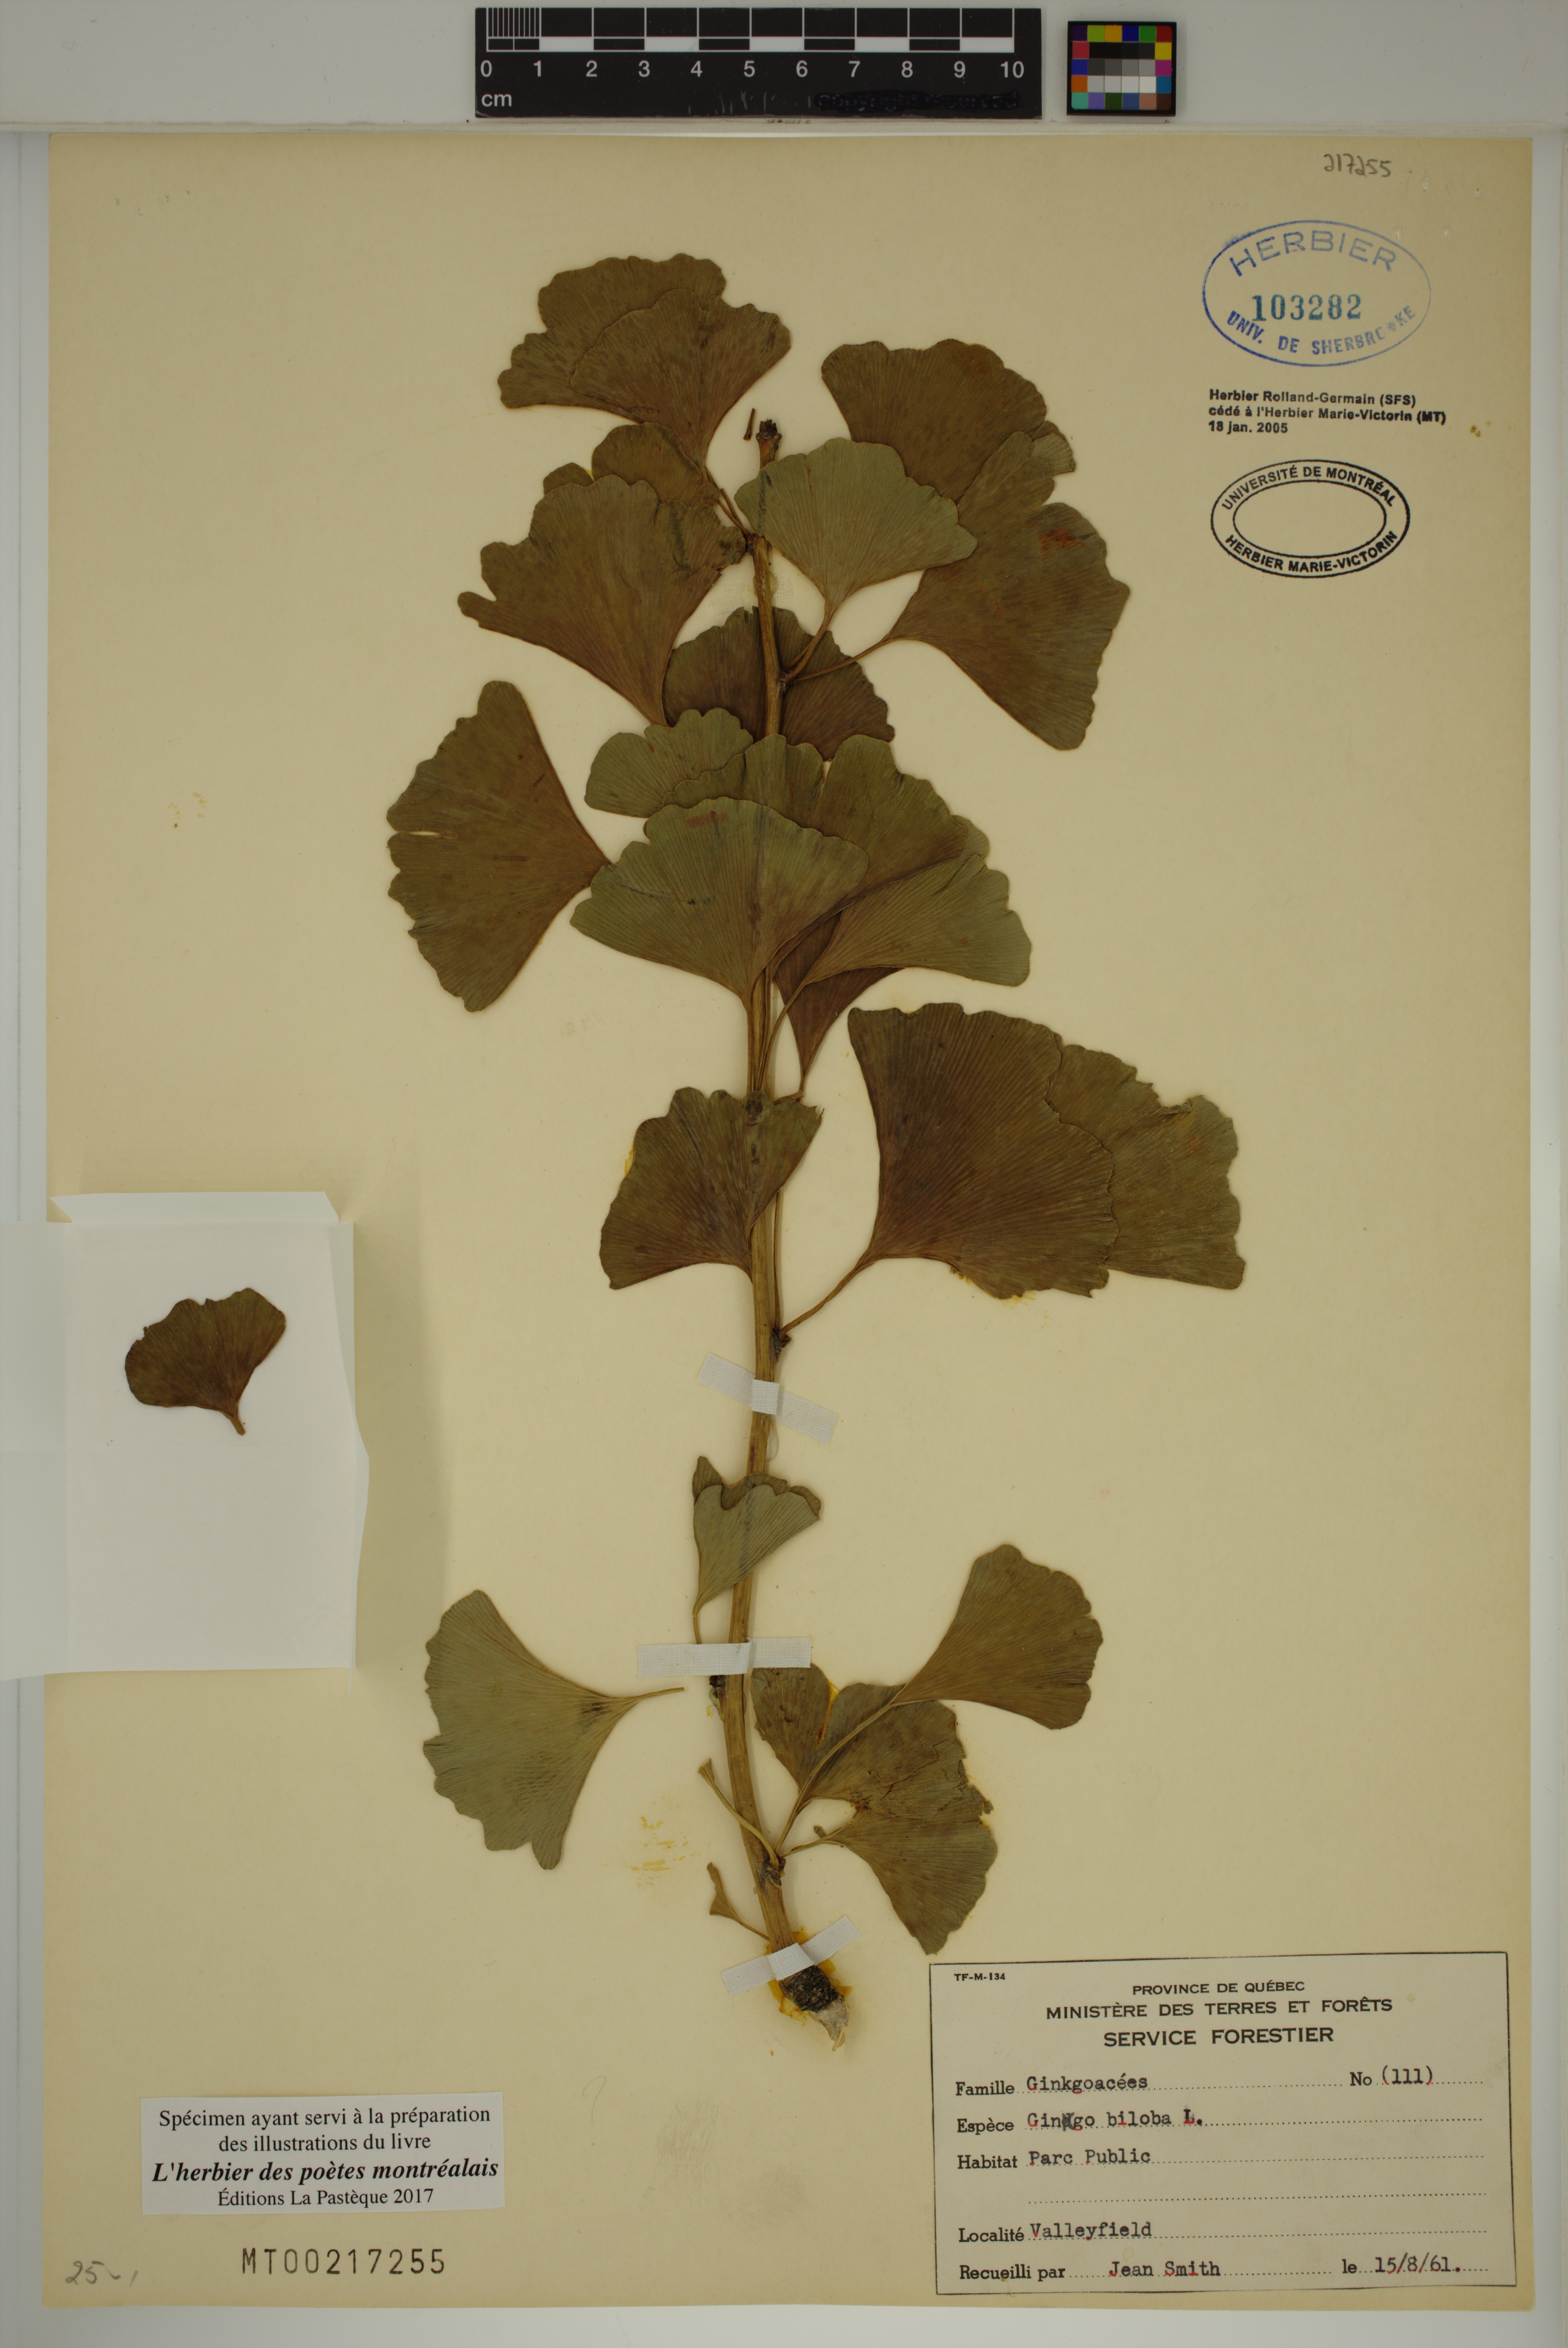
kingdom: Plantae
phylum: Tracheophyta
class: Ginkgoopsida
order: Ginkgoales
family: Ginkgoaceae
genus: Ginkgo
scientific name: Ginkgo biloba
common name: Ginkgo
